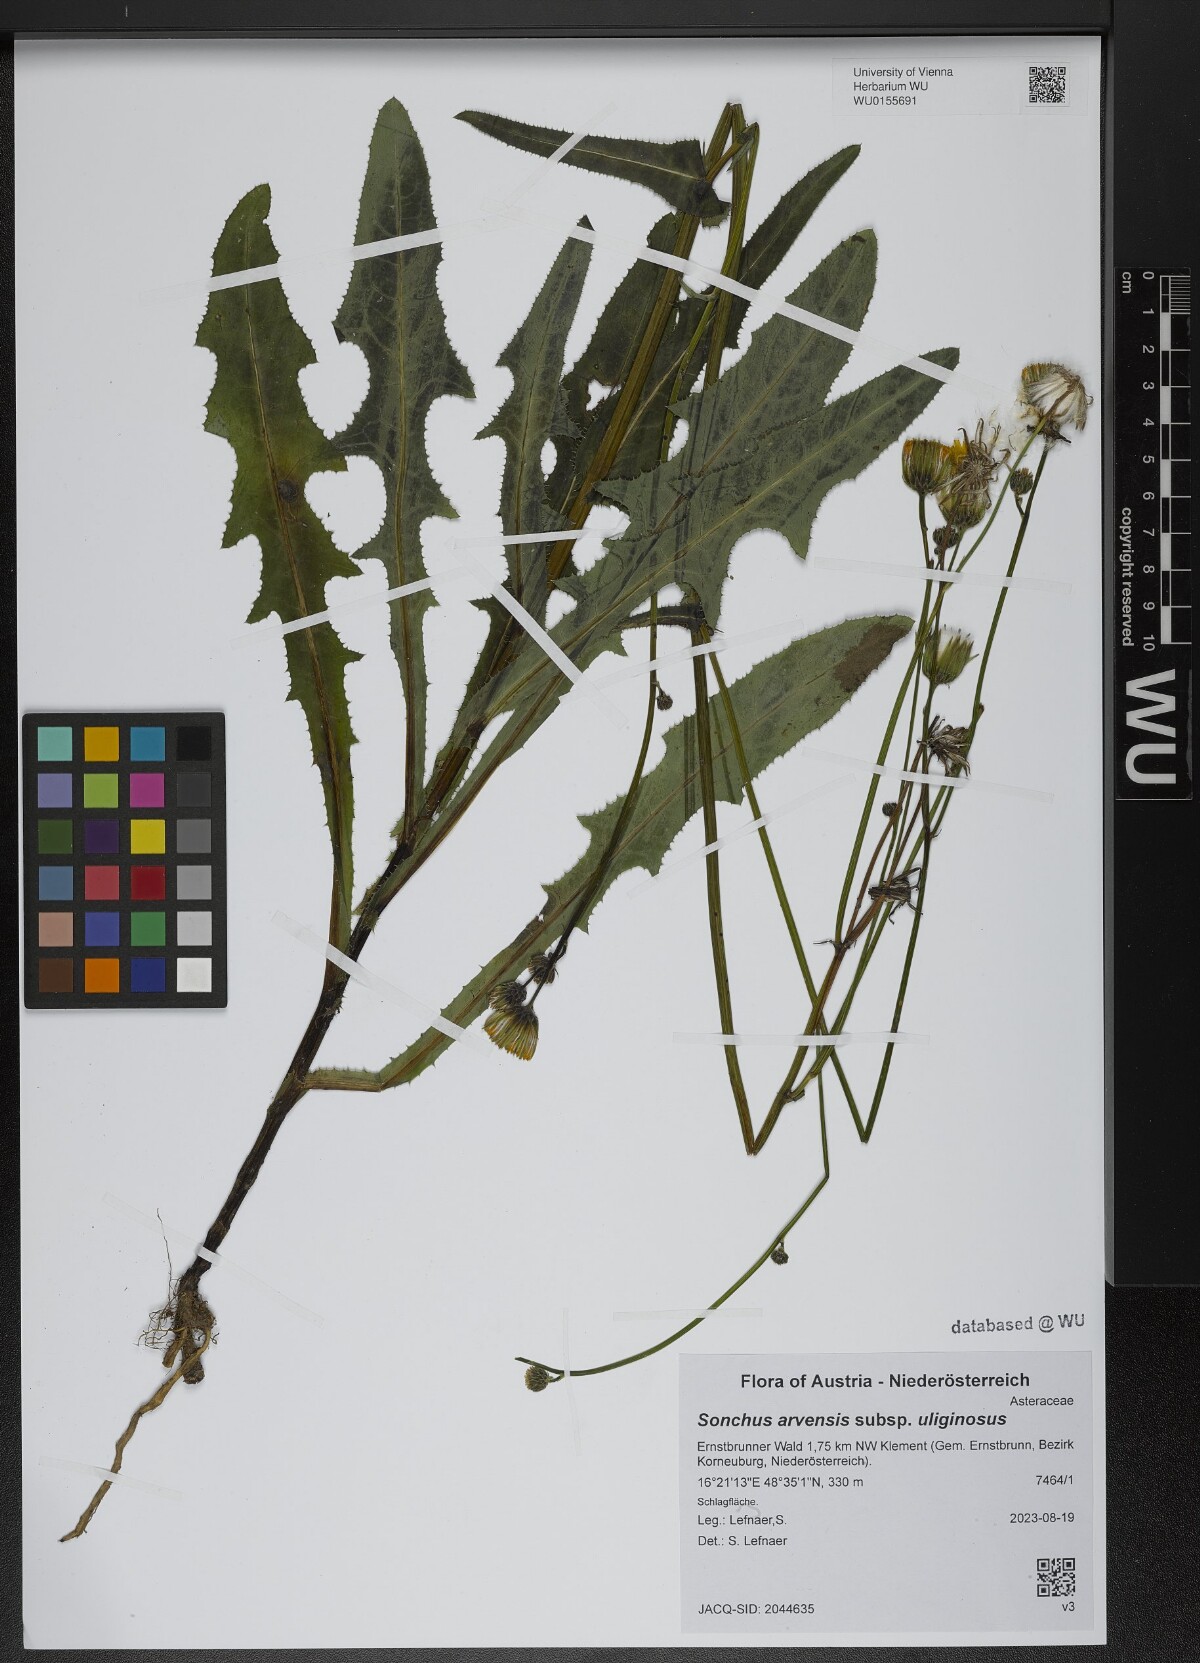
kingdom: Plantae
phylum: Tracheophyta
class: Magnoliopsida
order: Asterales
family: Asteraceae
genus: Sonchus
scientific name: Sonchus arvensis
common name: Perennial sow-thistle
